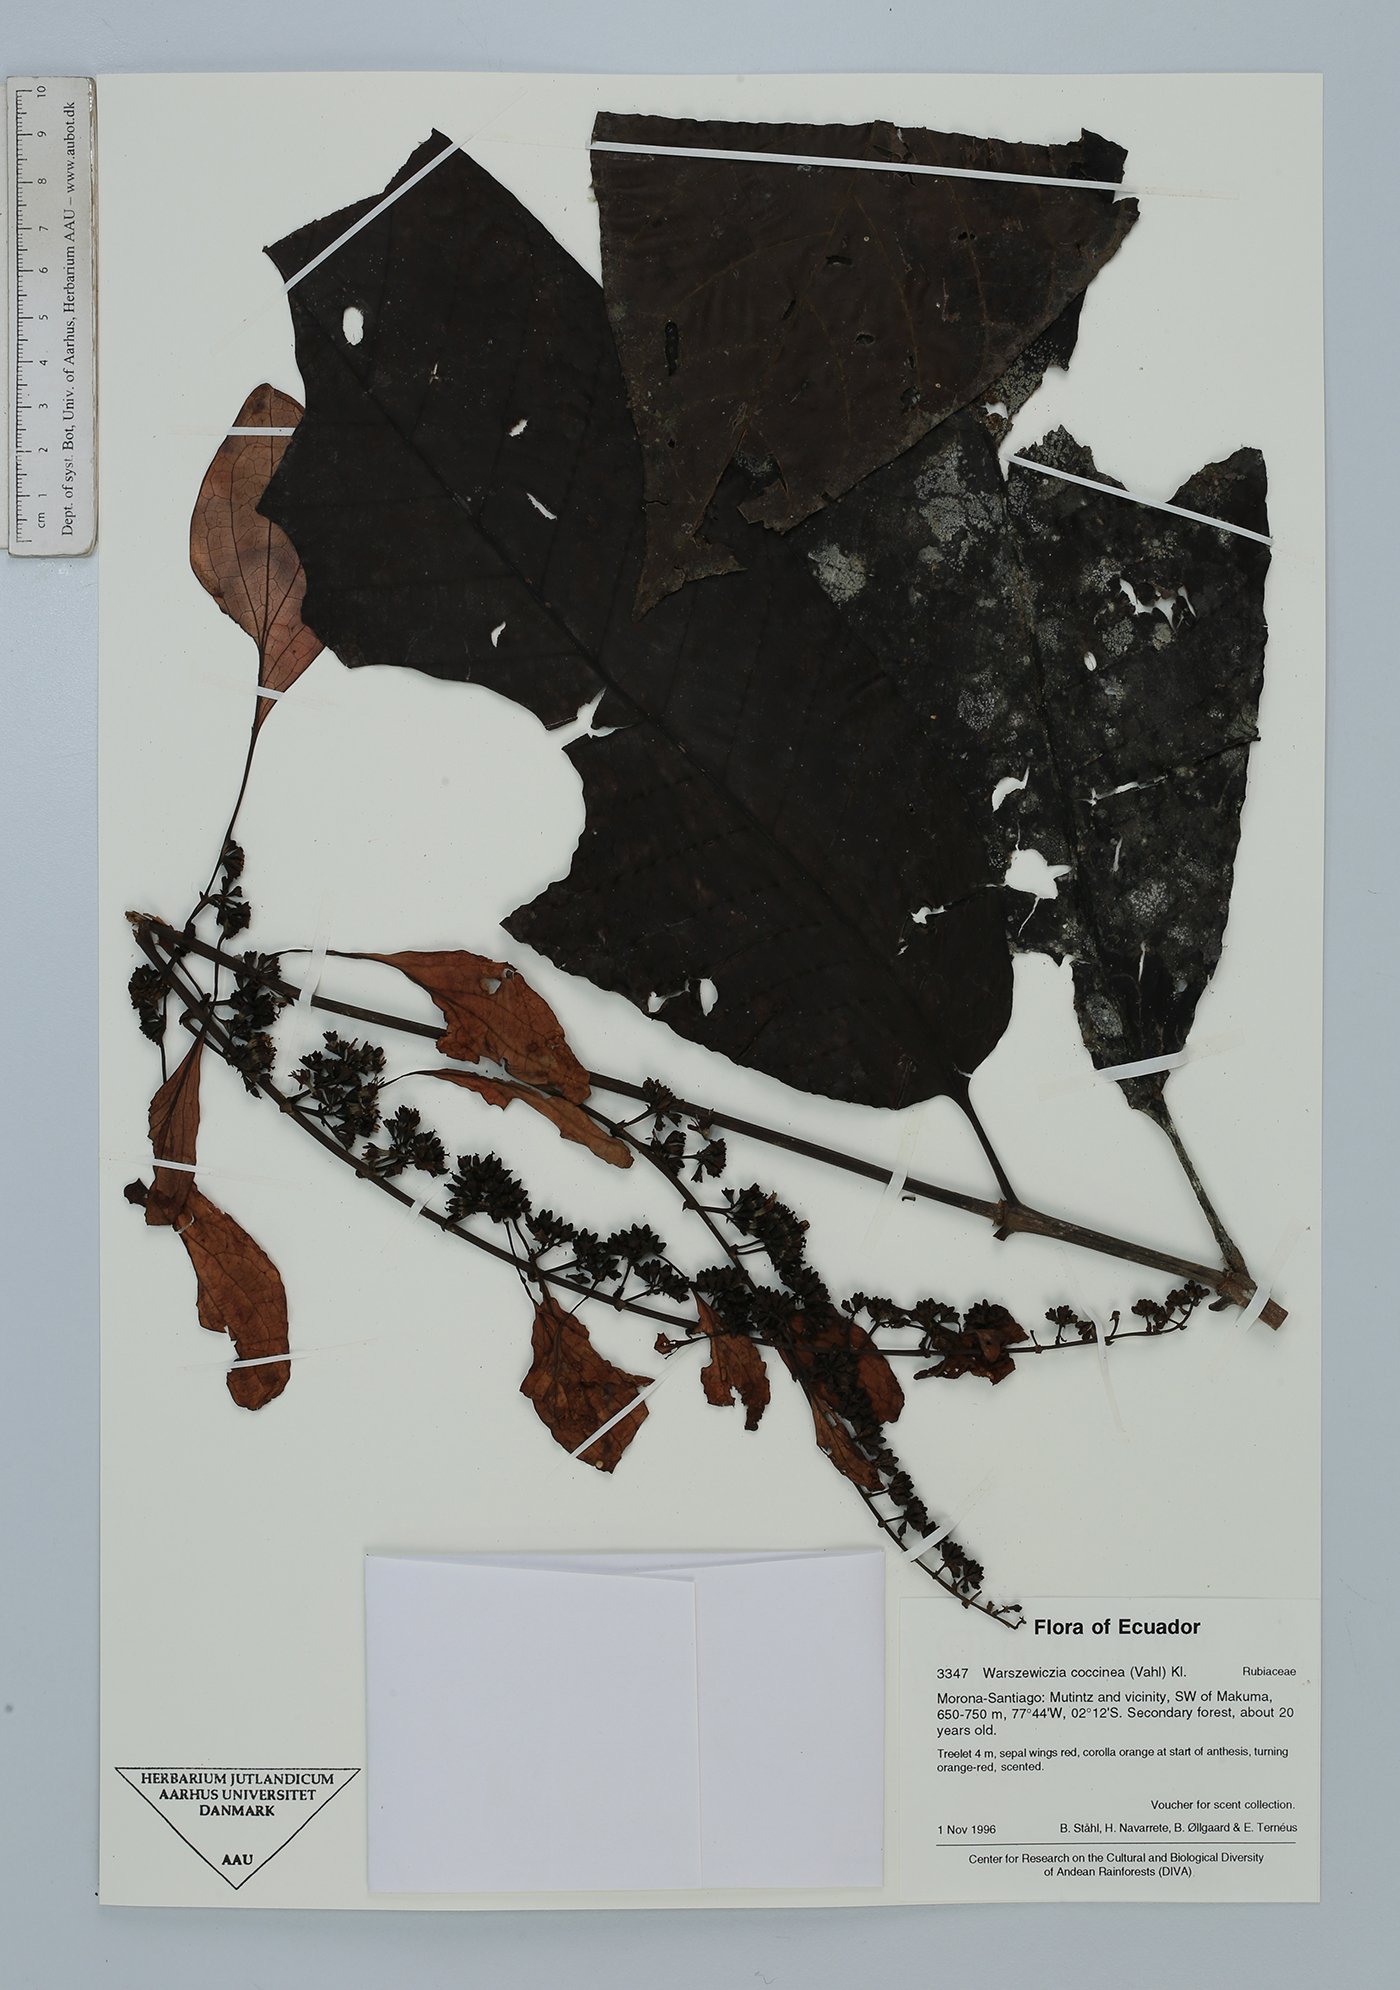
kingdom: Plantae
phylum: Tracheophyta
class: Magnoliopsida
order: Gentianales
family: Rubiaceae
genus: Warszewiczia
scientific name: Warszewiczia coccinea
